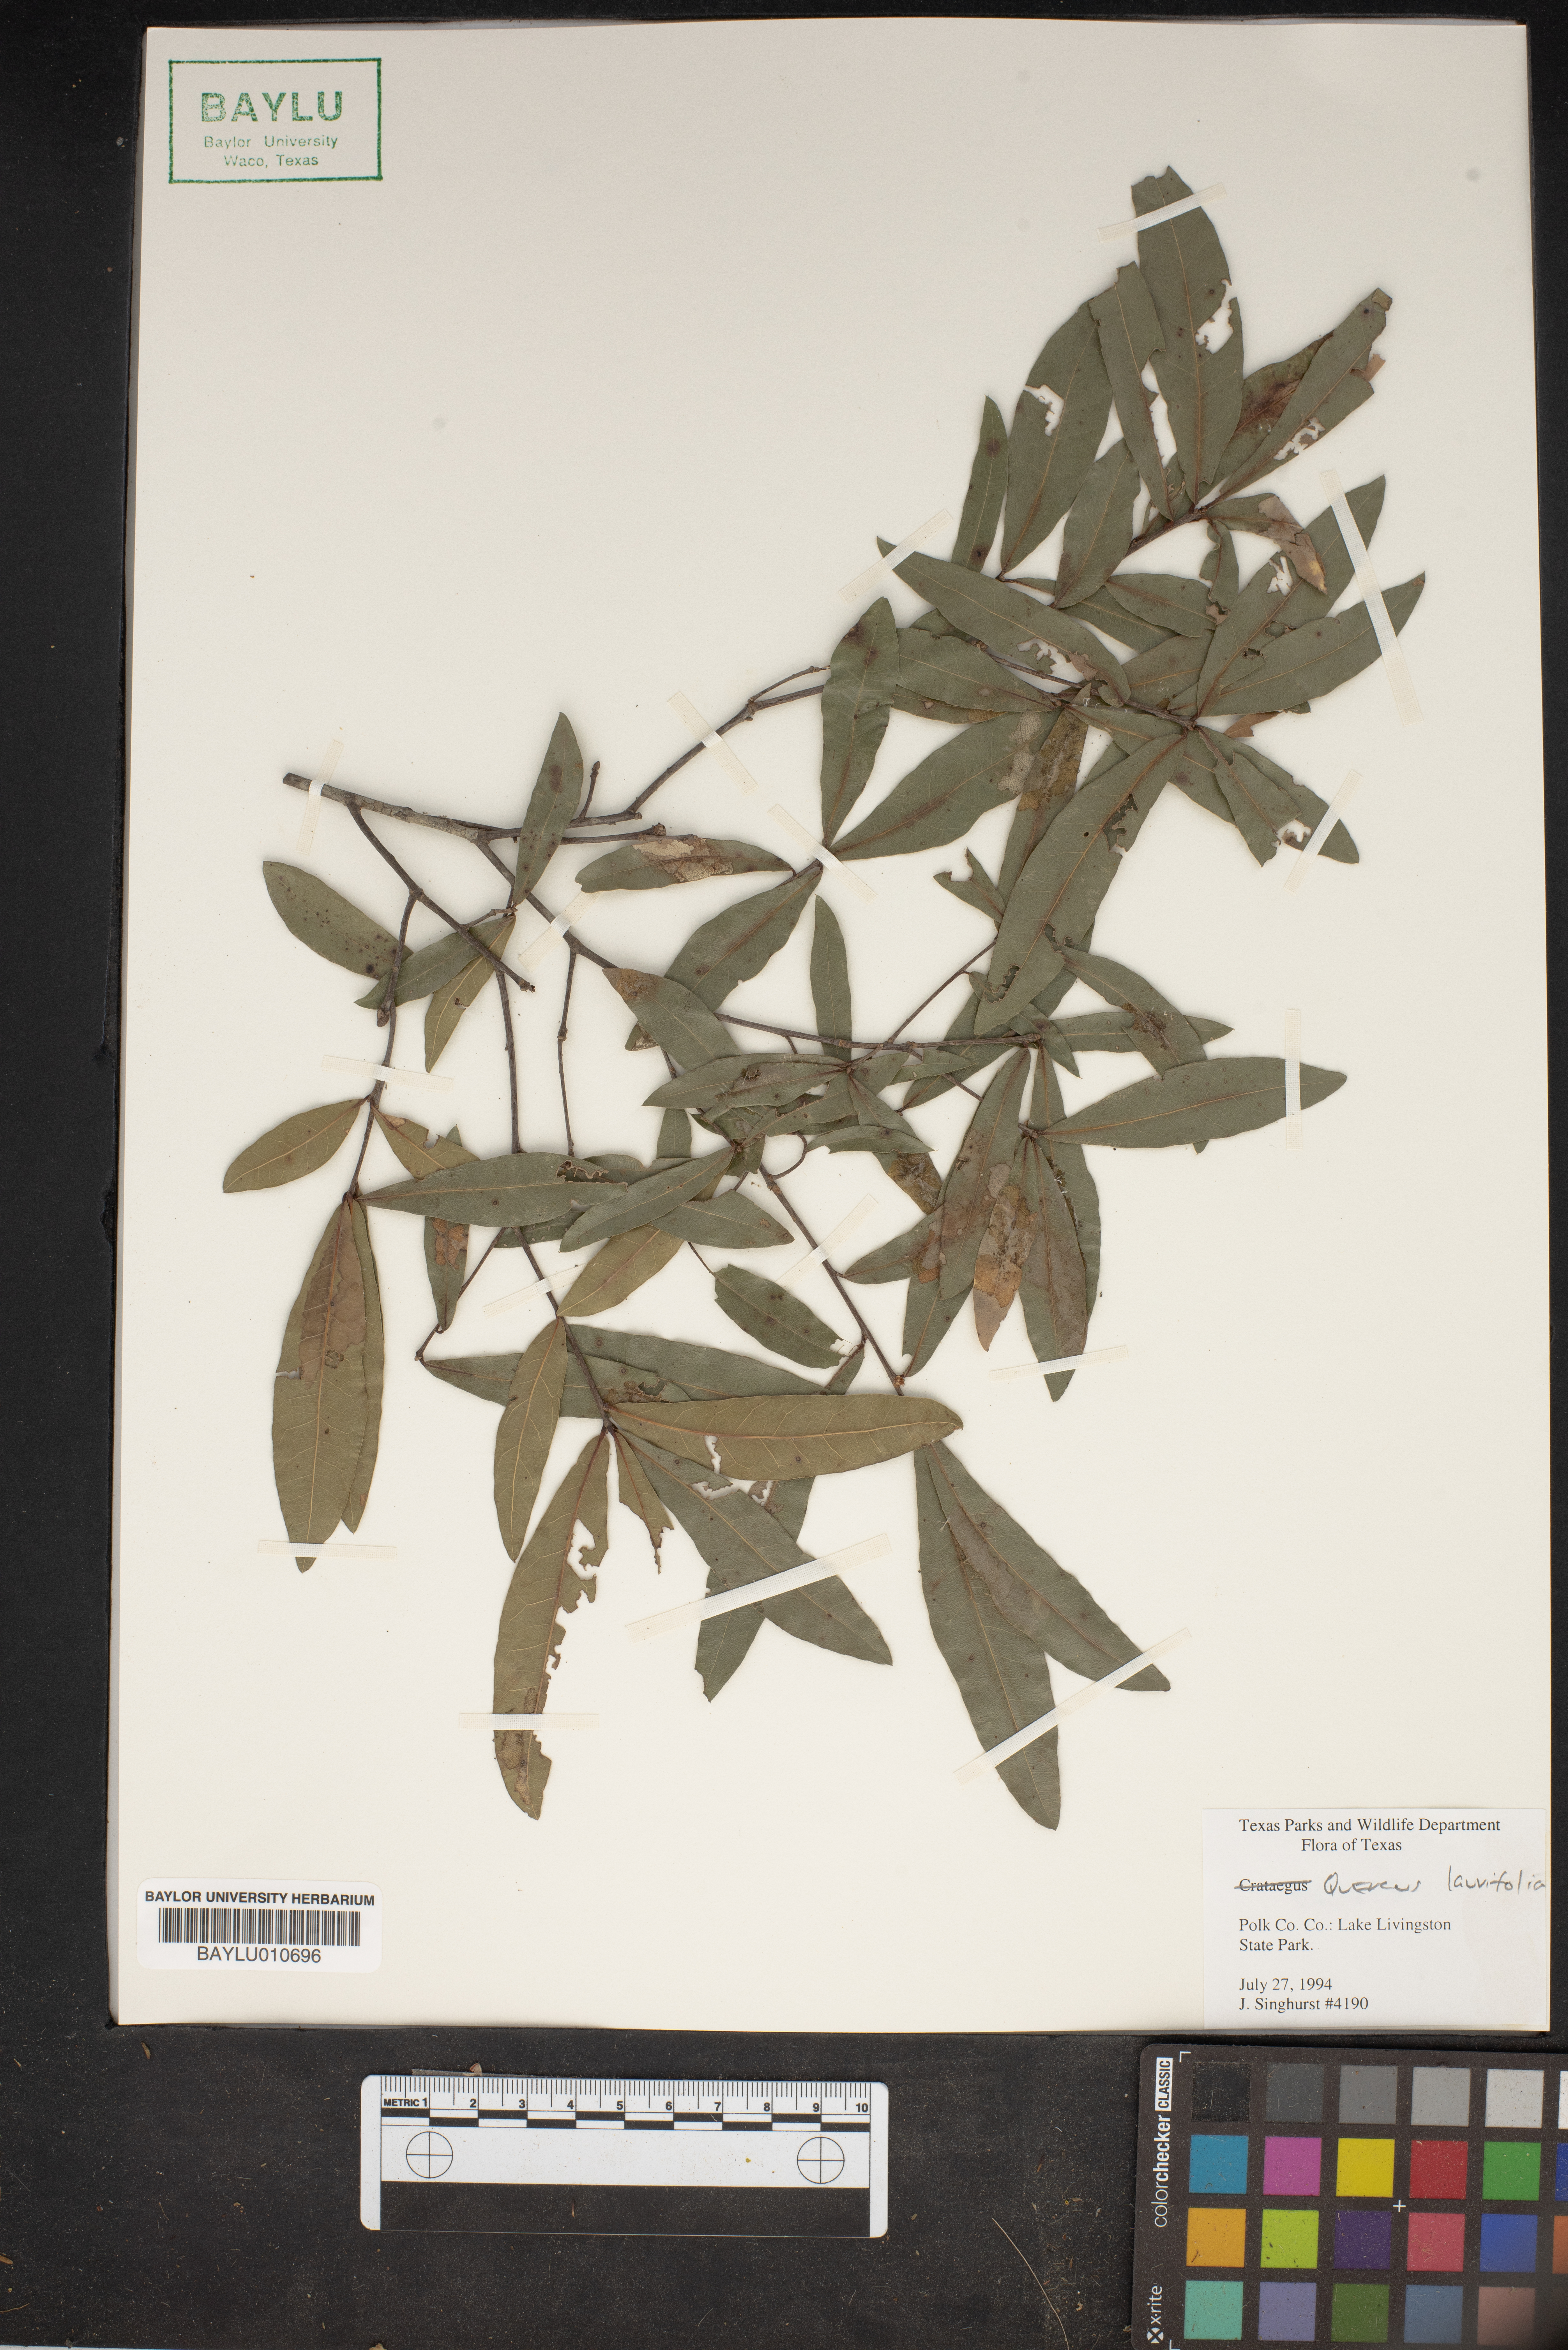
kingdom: Plantae
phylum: Tracheophyta
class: Magnoliopsida
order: Fagales
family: Fagaceae
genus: Quercus
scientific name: Quercus laurifolia
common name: Swamp laurel oak
